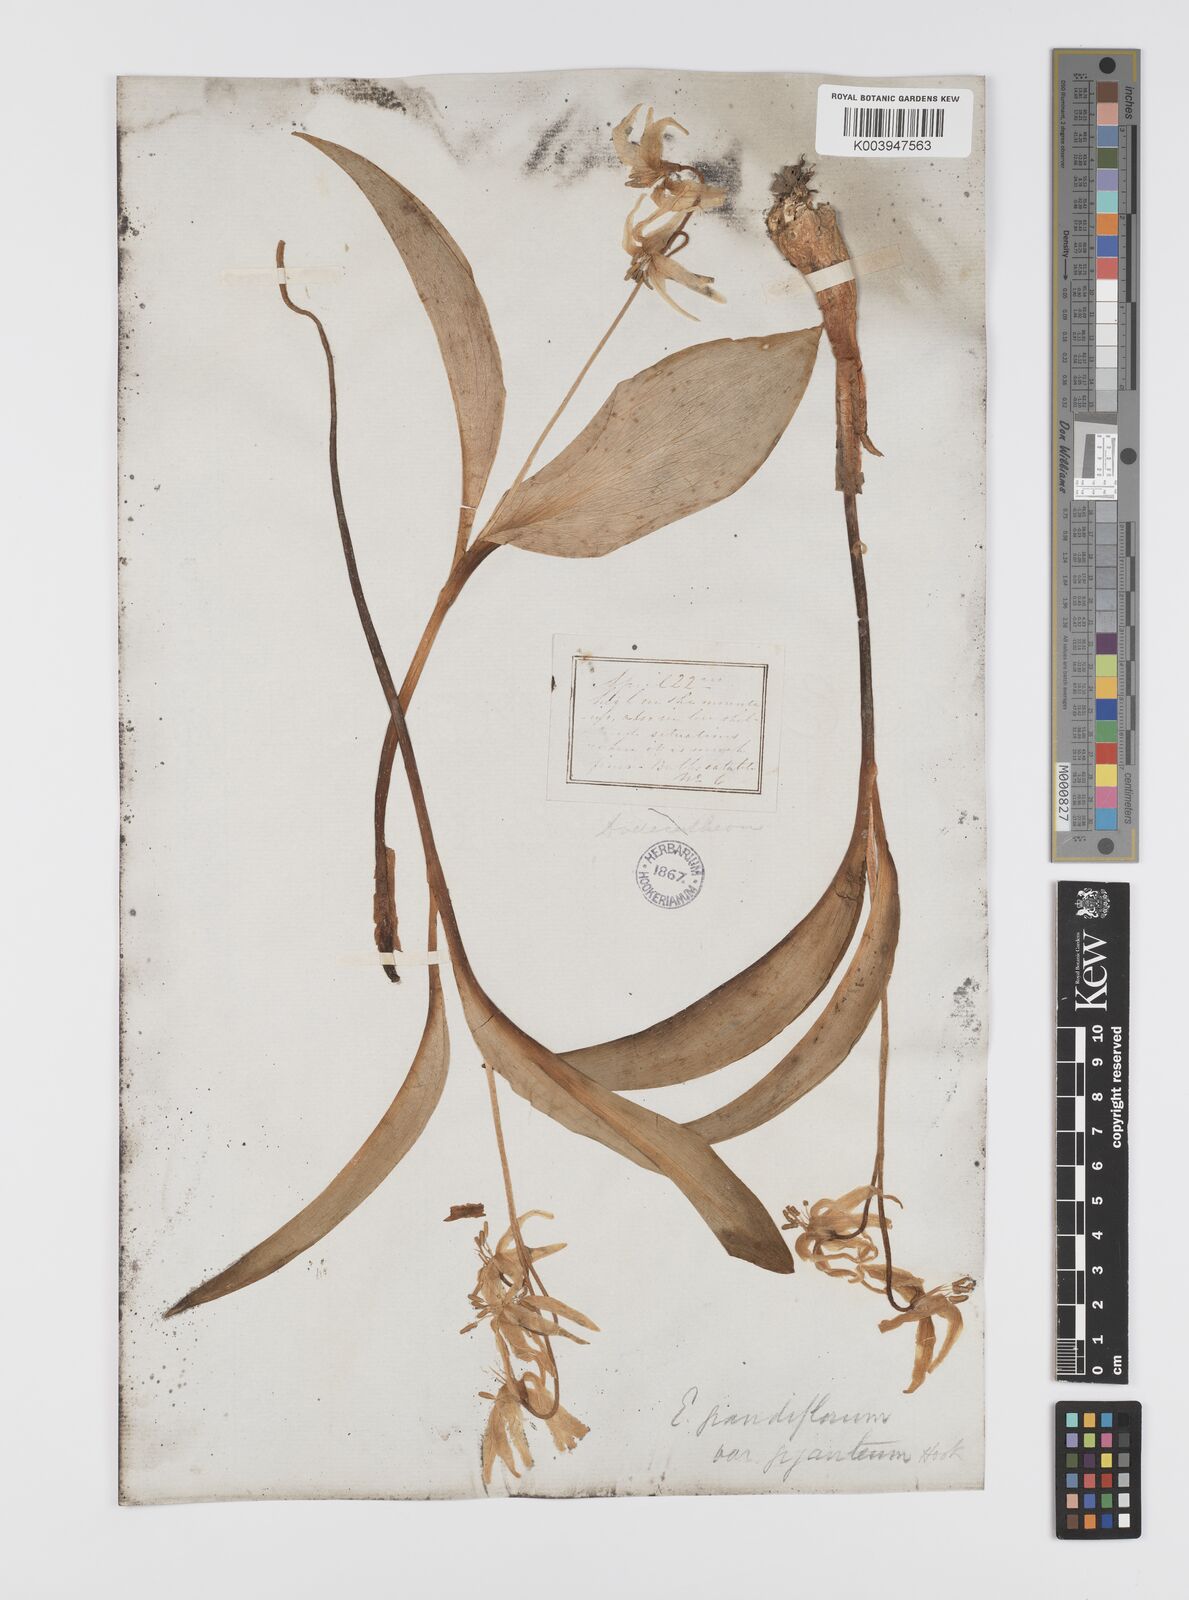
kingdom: Plantae
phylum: Tracheophyta
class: Liliopsida
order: Liliales
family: Liliaceae
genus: Erythronium
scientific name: Erythronium grandiflorum
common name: Avalanche-lily
